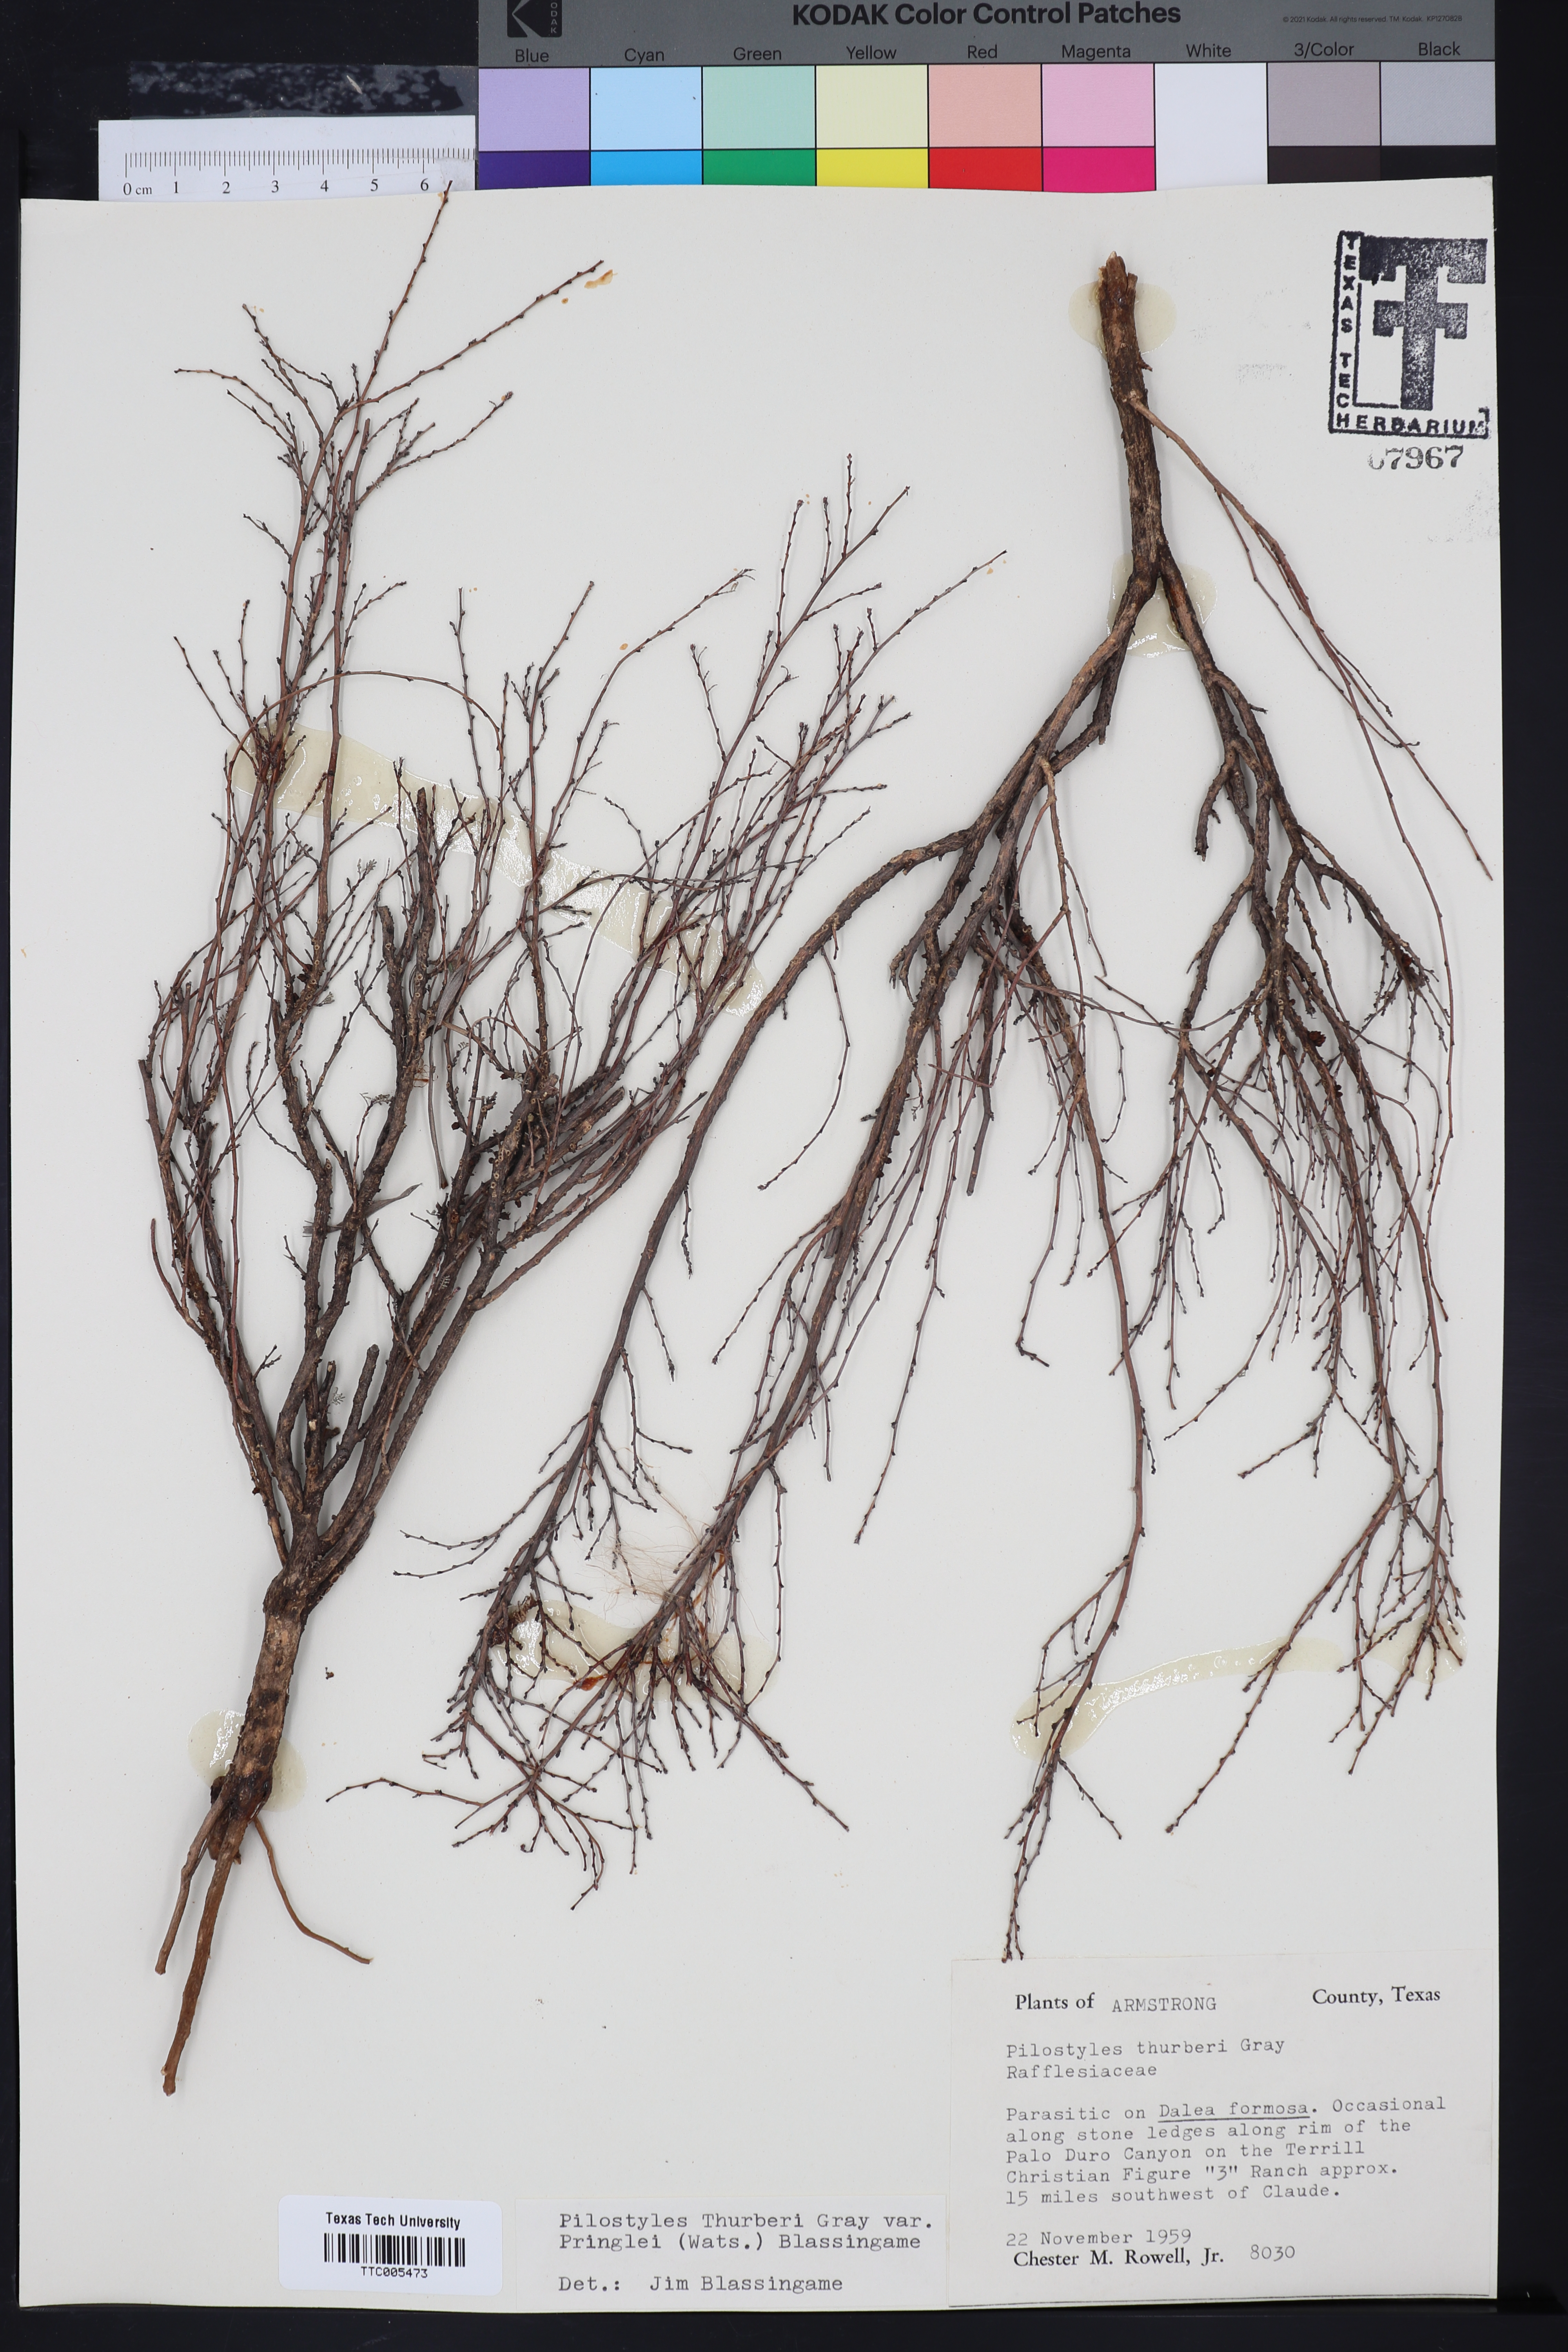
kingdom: Plantae
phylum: Tracheophyta
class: Magnoliopsida
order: Cucurbitales
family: Apodanthaceae
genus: Pilostyles
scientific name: Pilostyles thurberi
